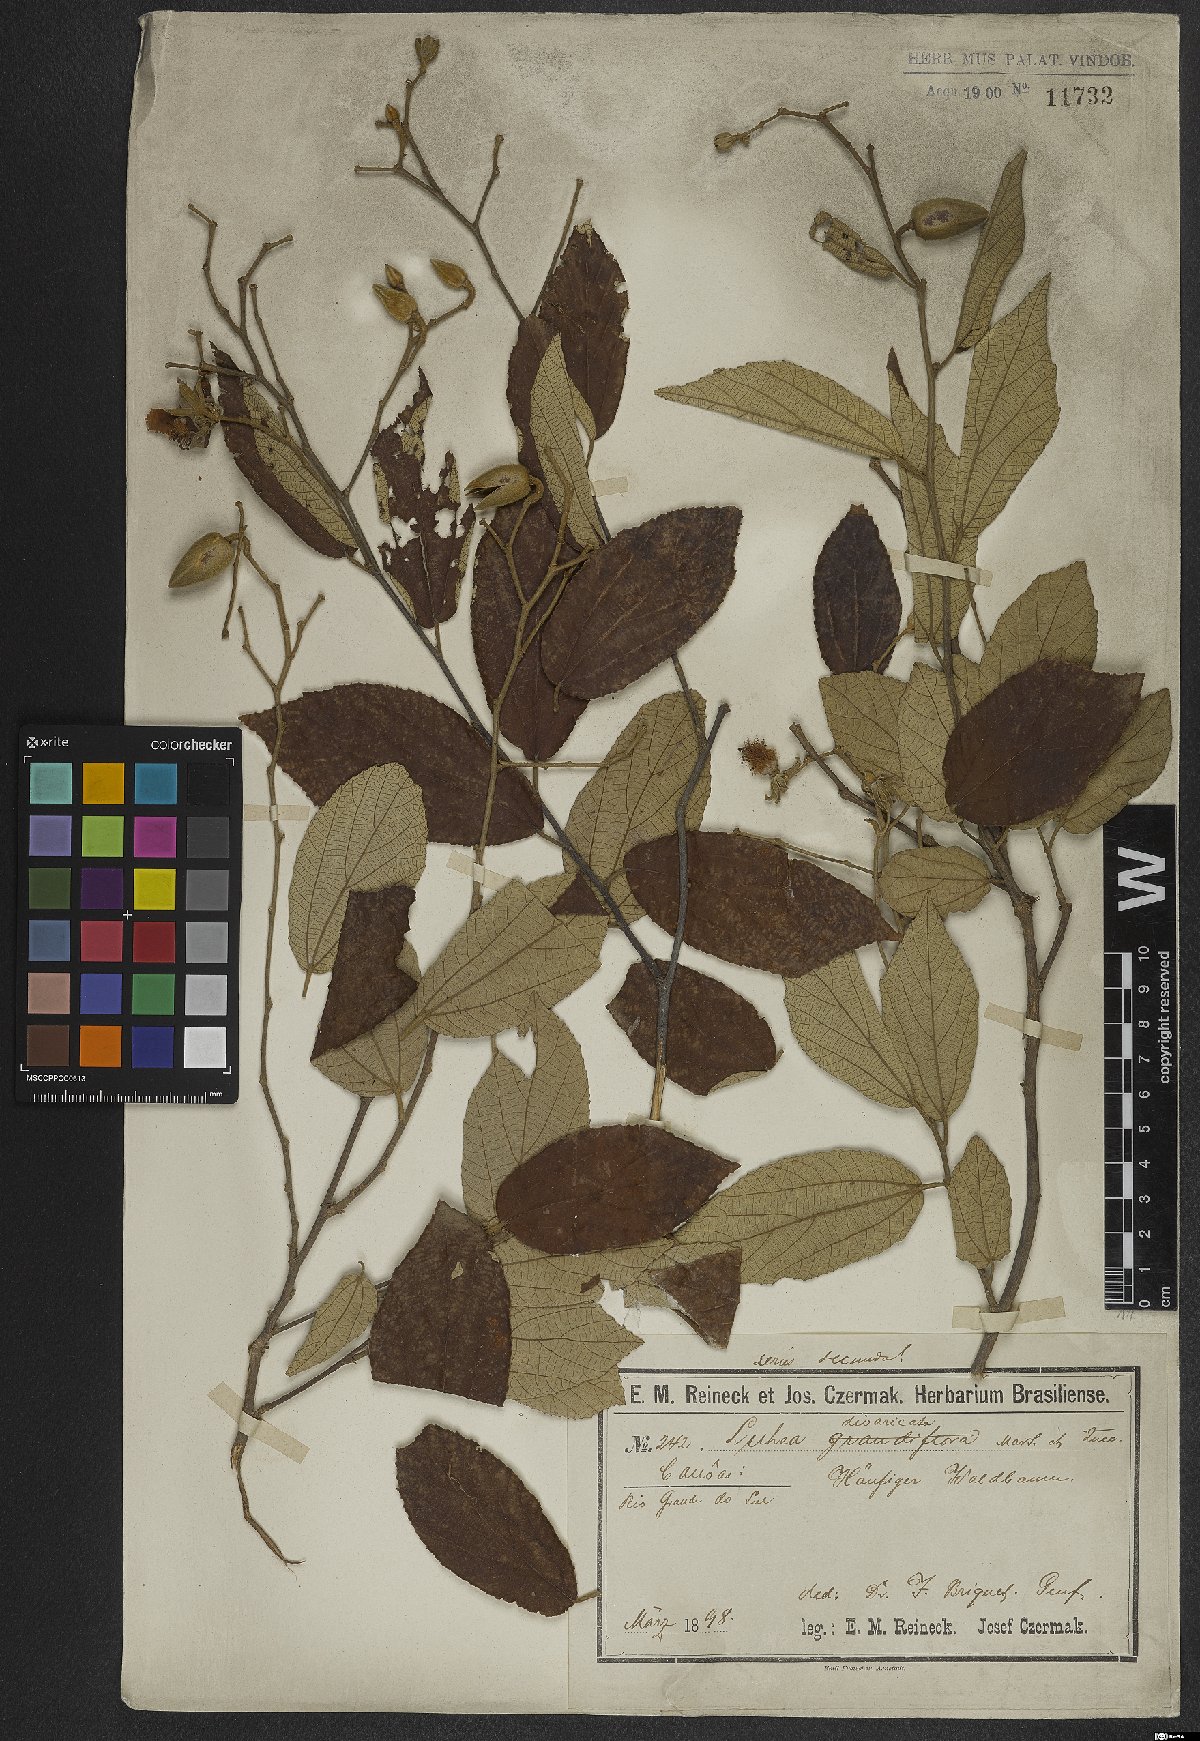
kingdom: Plantae
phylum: Tracheophyta
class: Magnoliopsida
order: Malvales
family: Malvaceae
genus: Luehea
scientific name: Luehea divaricata
